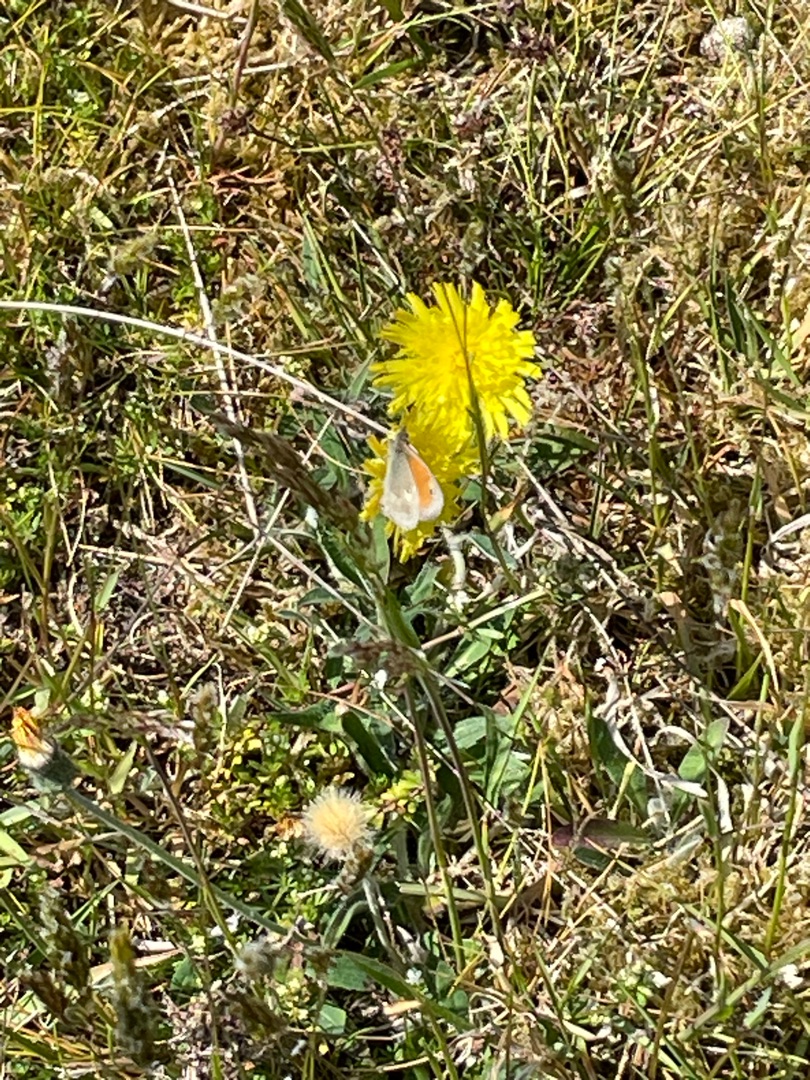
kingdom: Animalia
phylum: Arthropoda
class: Insecta
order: Lepidoptera
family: Nymphalidae
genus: Coenonympha
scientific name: Coenonympha pamphilus
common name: Okkergul randøje
